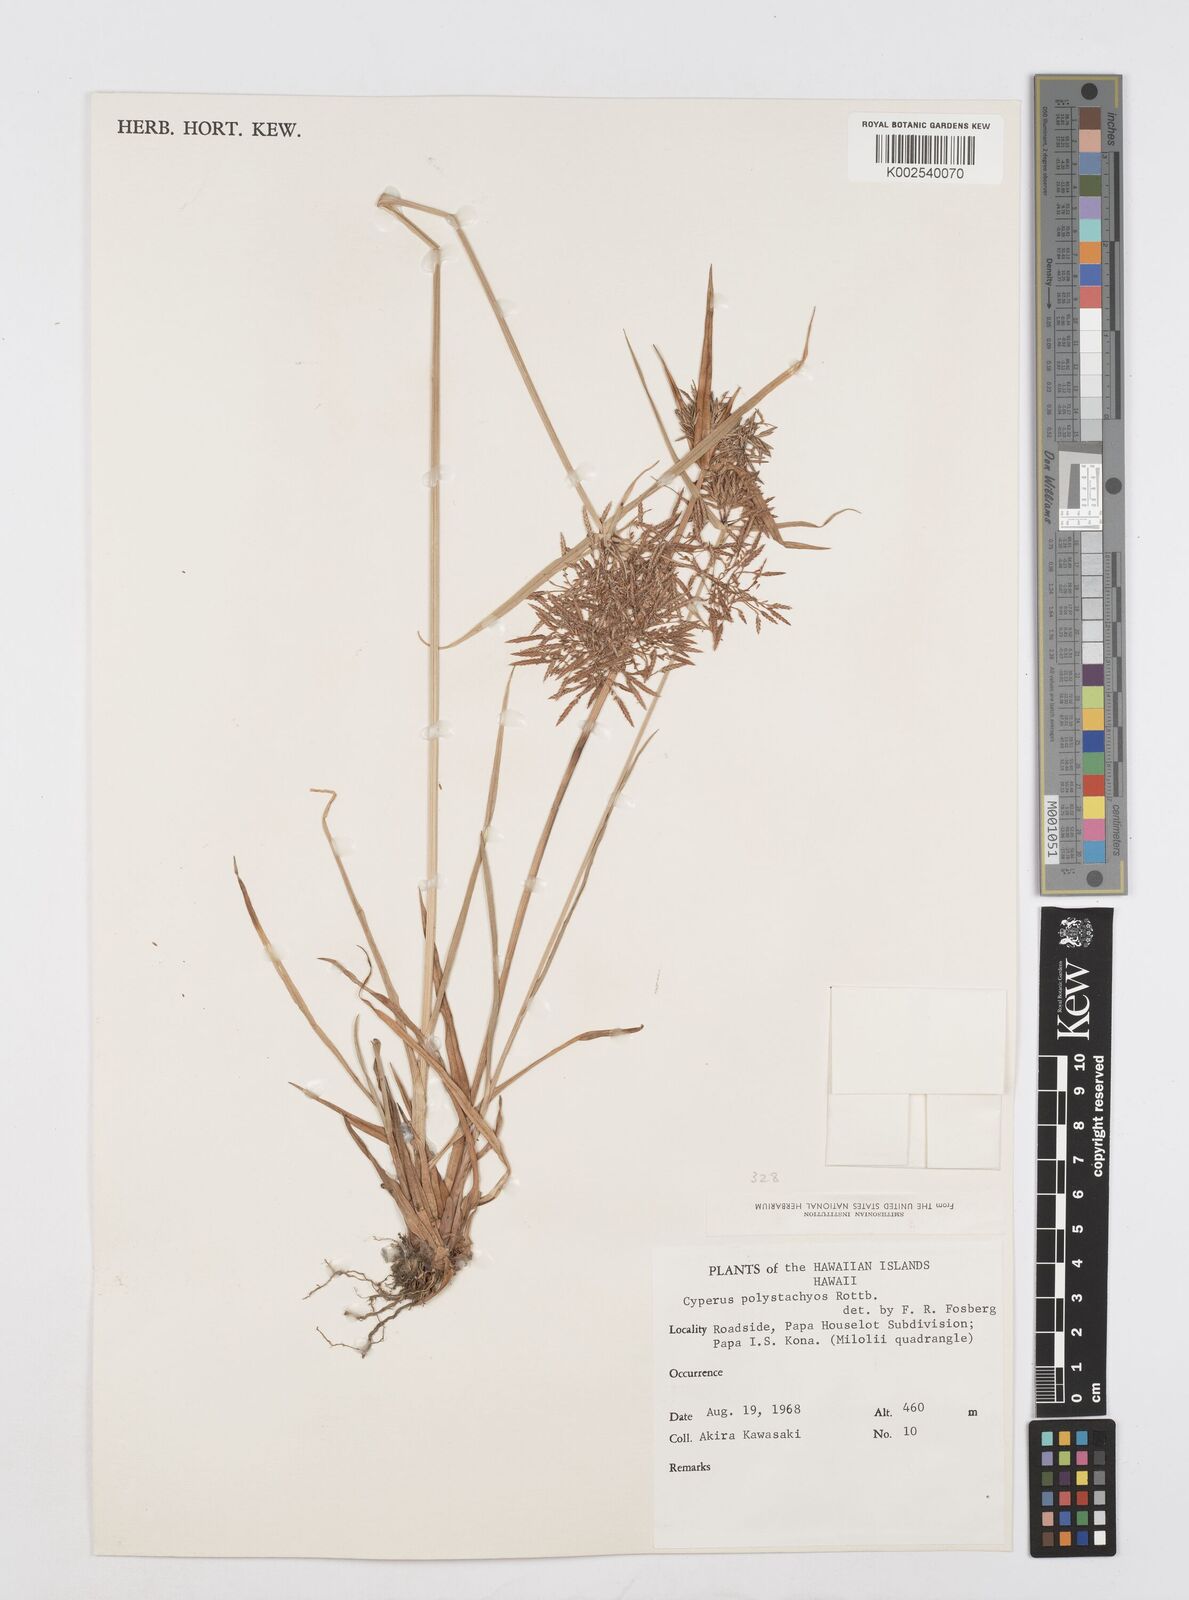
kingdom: Plantae
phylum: Tracheophyta
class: Liliopsida
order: Poales
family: Cyperaceae
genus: Cyperus
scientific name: Cyperus polystachyos
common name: Bunchy flat sedge
